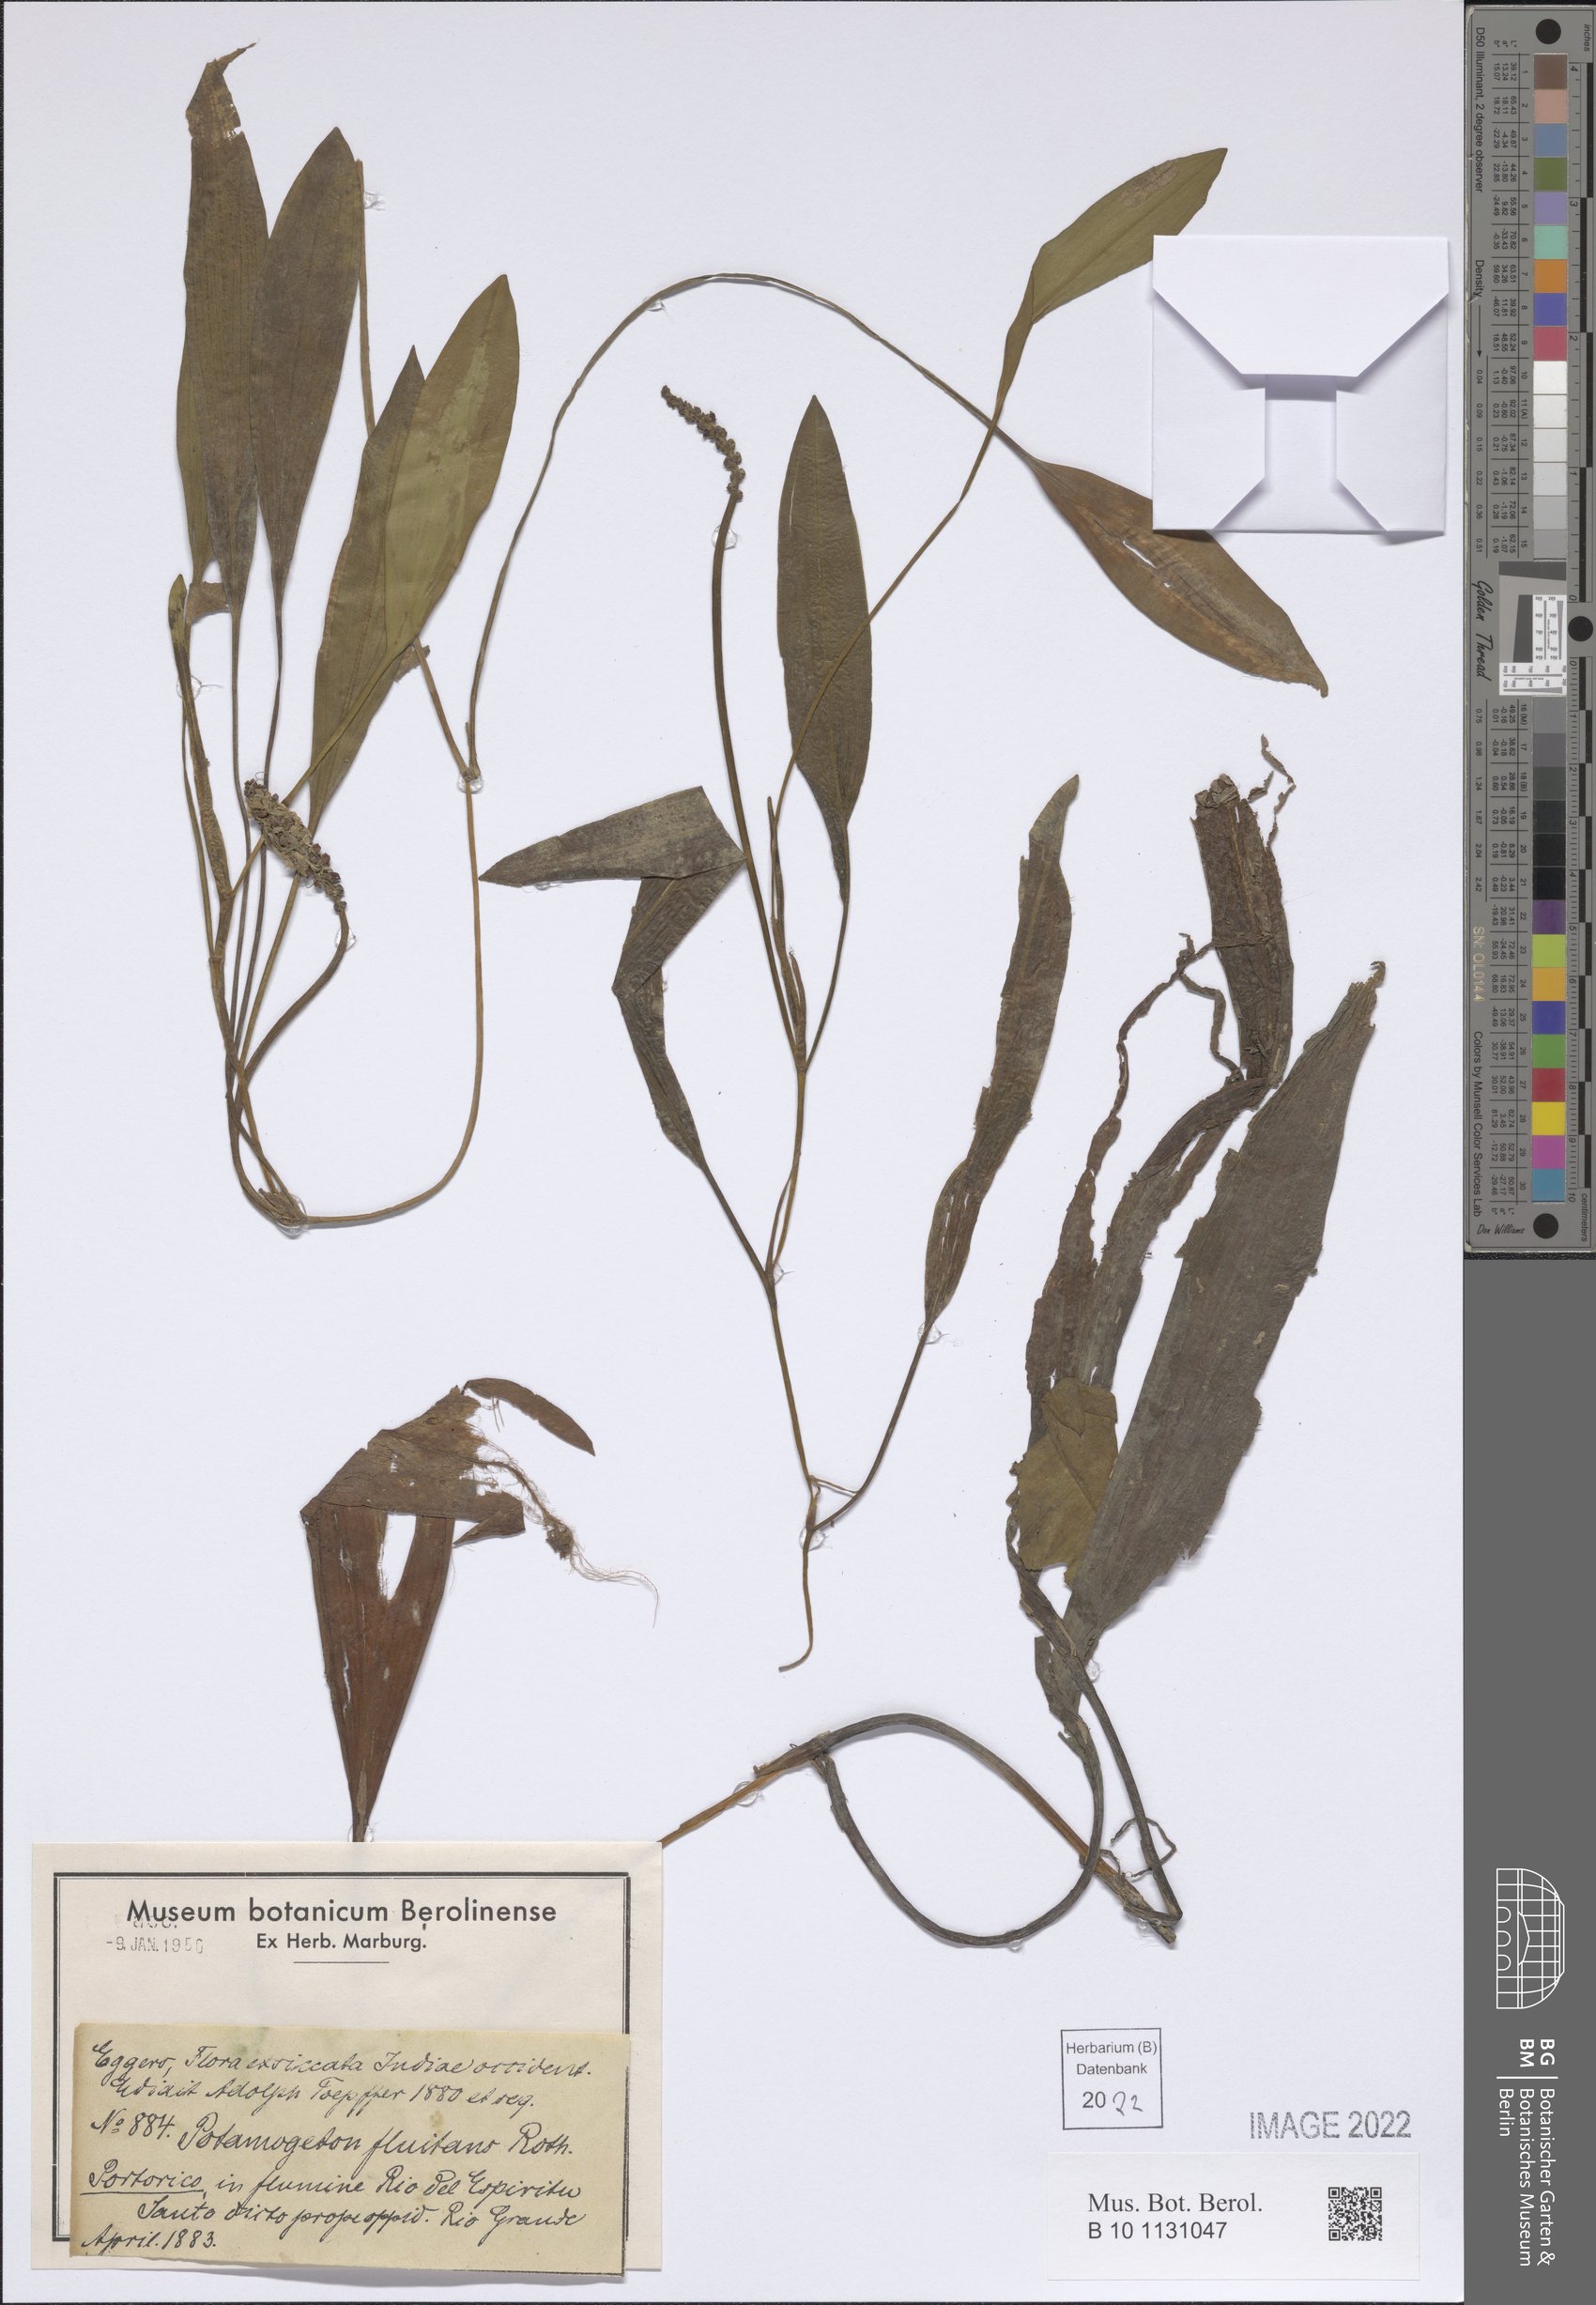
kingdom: Plantae
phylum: Tracheophyta
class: Liliopsida
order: Alismatales
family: Potamogetonaceae
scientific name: Potamogetonaceae
